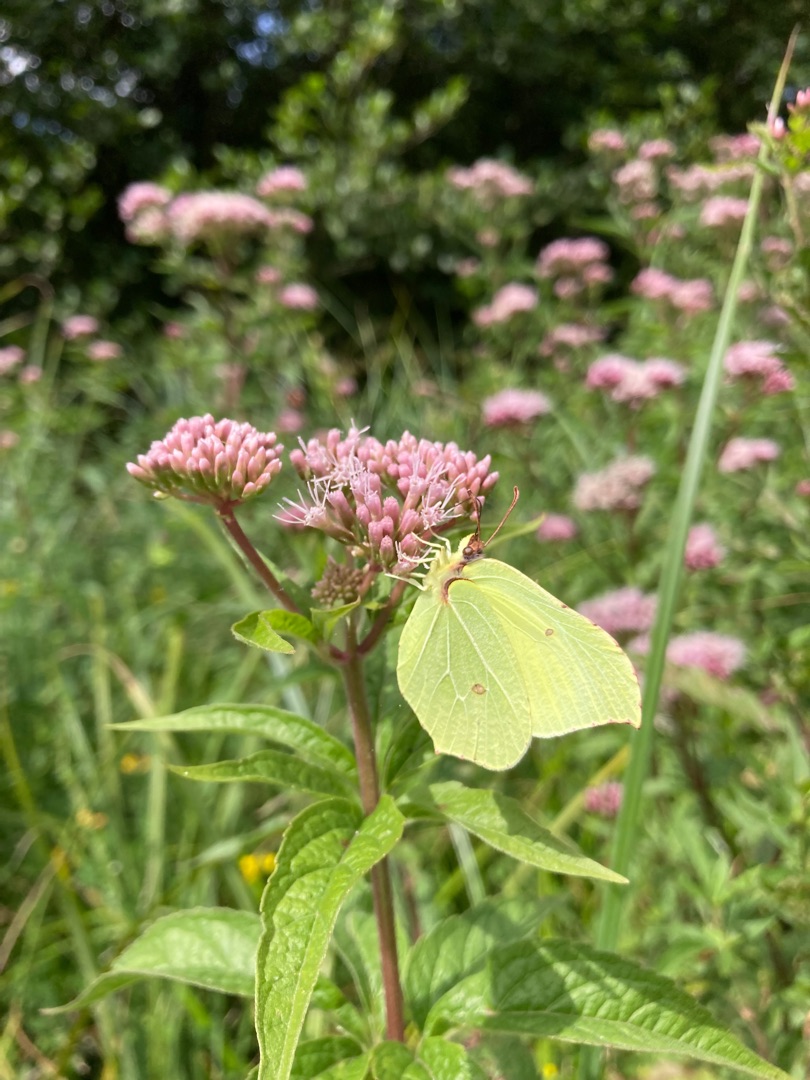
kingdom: Animalia
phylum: Arthropoda
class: Insecta
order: Lepidoptera
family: Pieridae
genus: Gonepteryx
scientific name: Gonepteryx rhamni
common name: Citronsommerfugl
